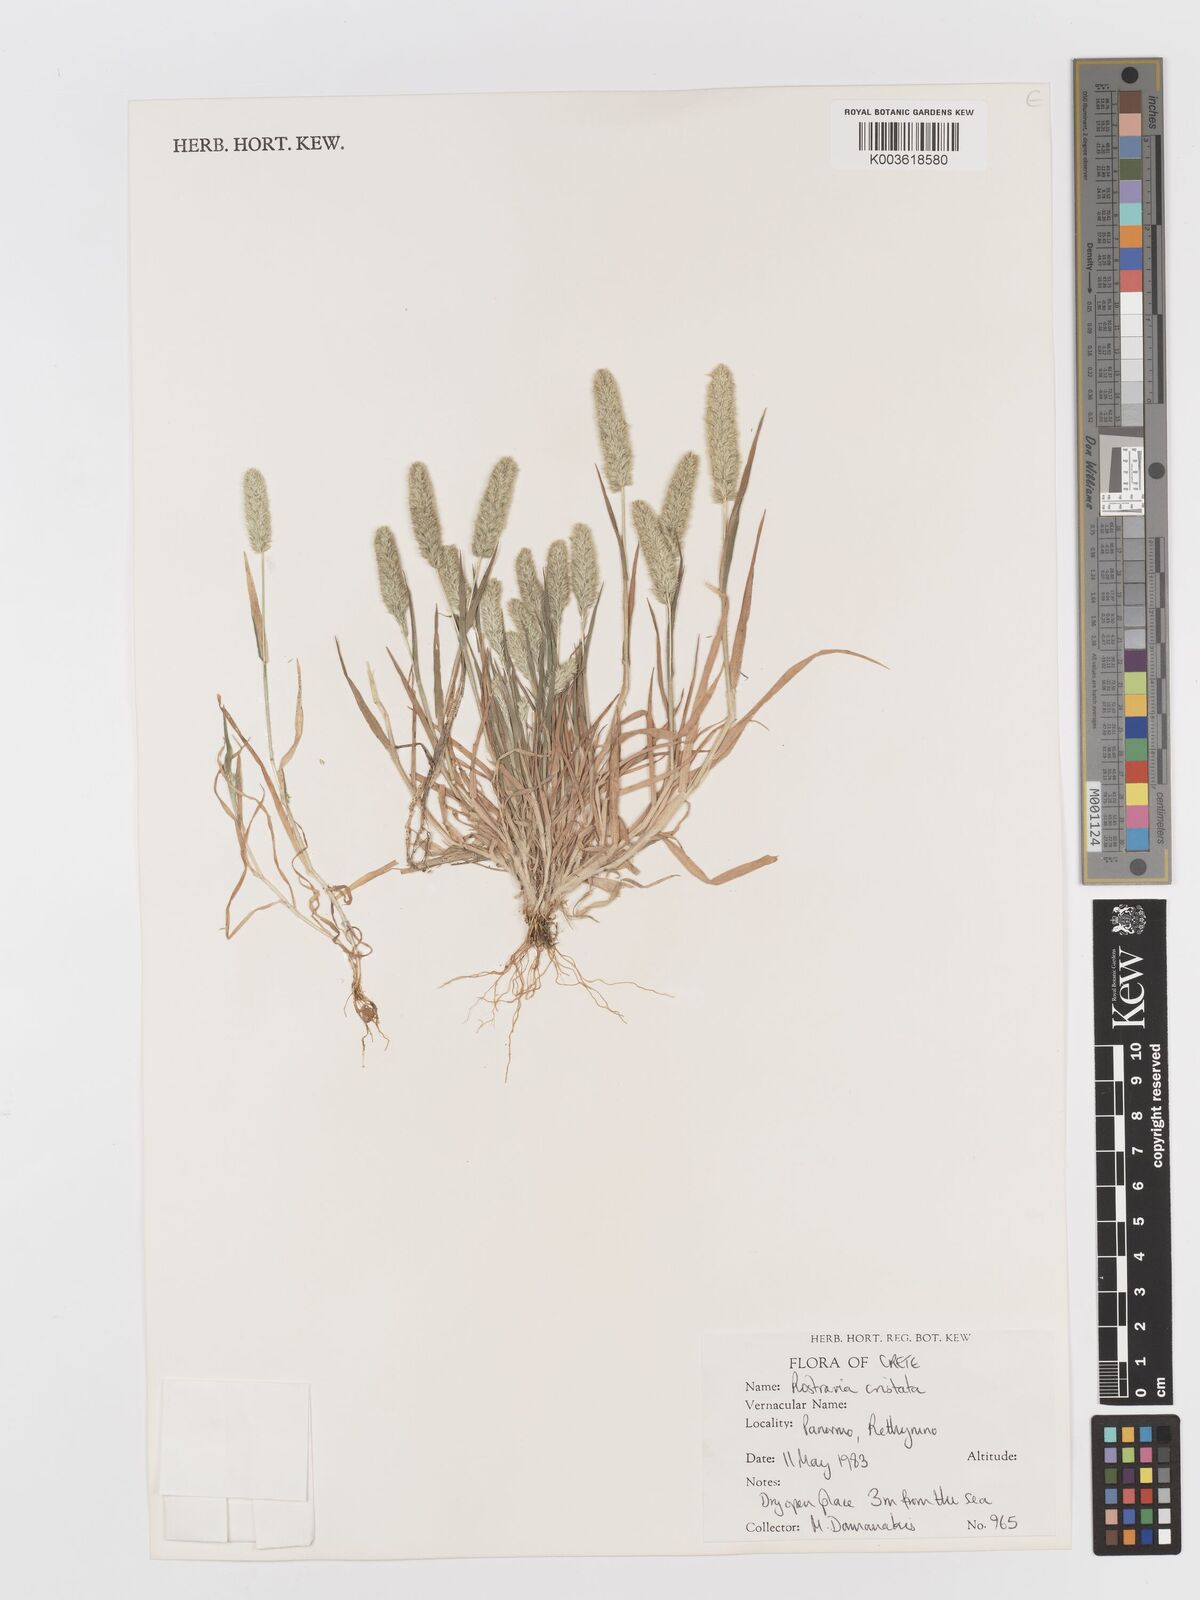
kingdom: Plantae
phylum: Tracheophyta
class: Liliopsida
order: Poales
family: Poaceae
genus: Rostraria
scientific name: Rostraria cristata
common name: Mediterranean hair-grass
